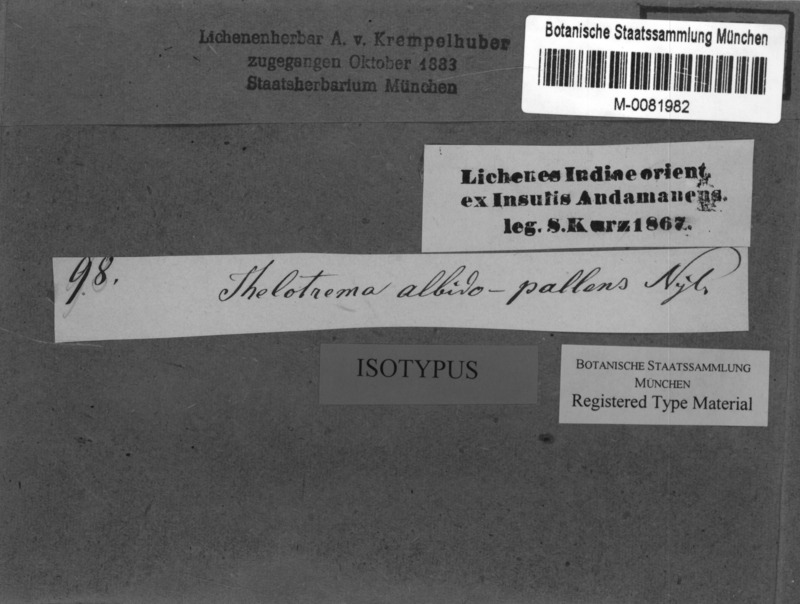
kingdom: Fungi
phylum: Ascomycota
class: Lecanoromycetes
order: Ostropales
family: Graphidaceae
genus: Thelotrema
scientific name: Thelotrema albidopallens
